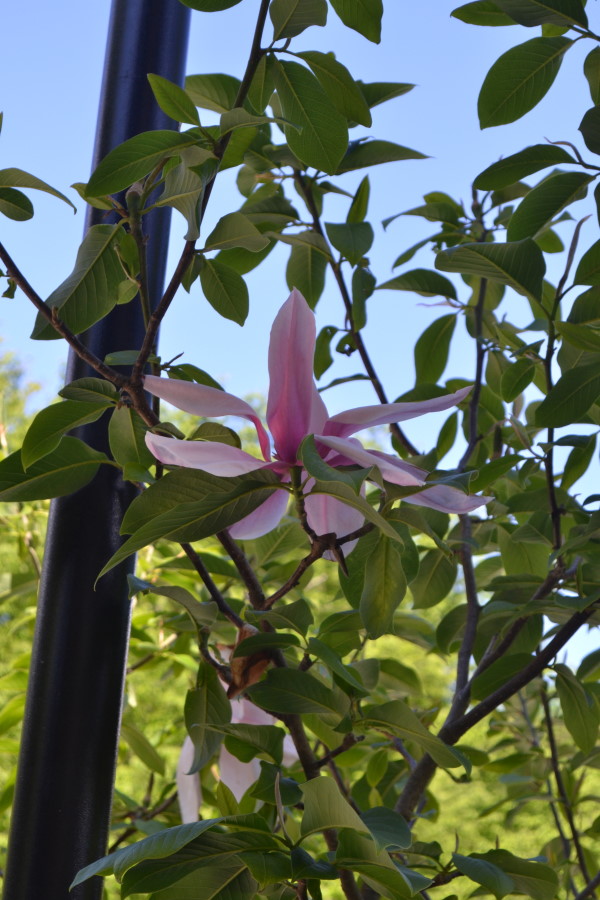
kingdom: Plantae
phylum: Tracheophyta
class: Magnoliopsida
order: Magnoliales
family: Magnoliaceae
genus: Magnolia
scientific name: Magnolia
